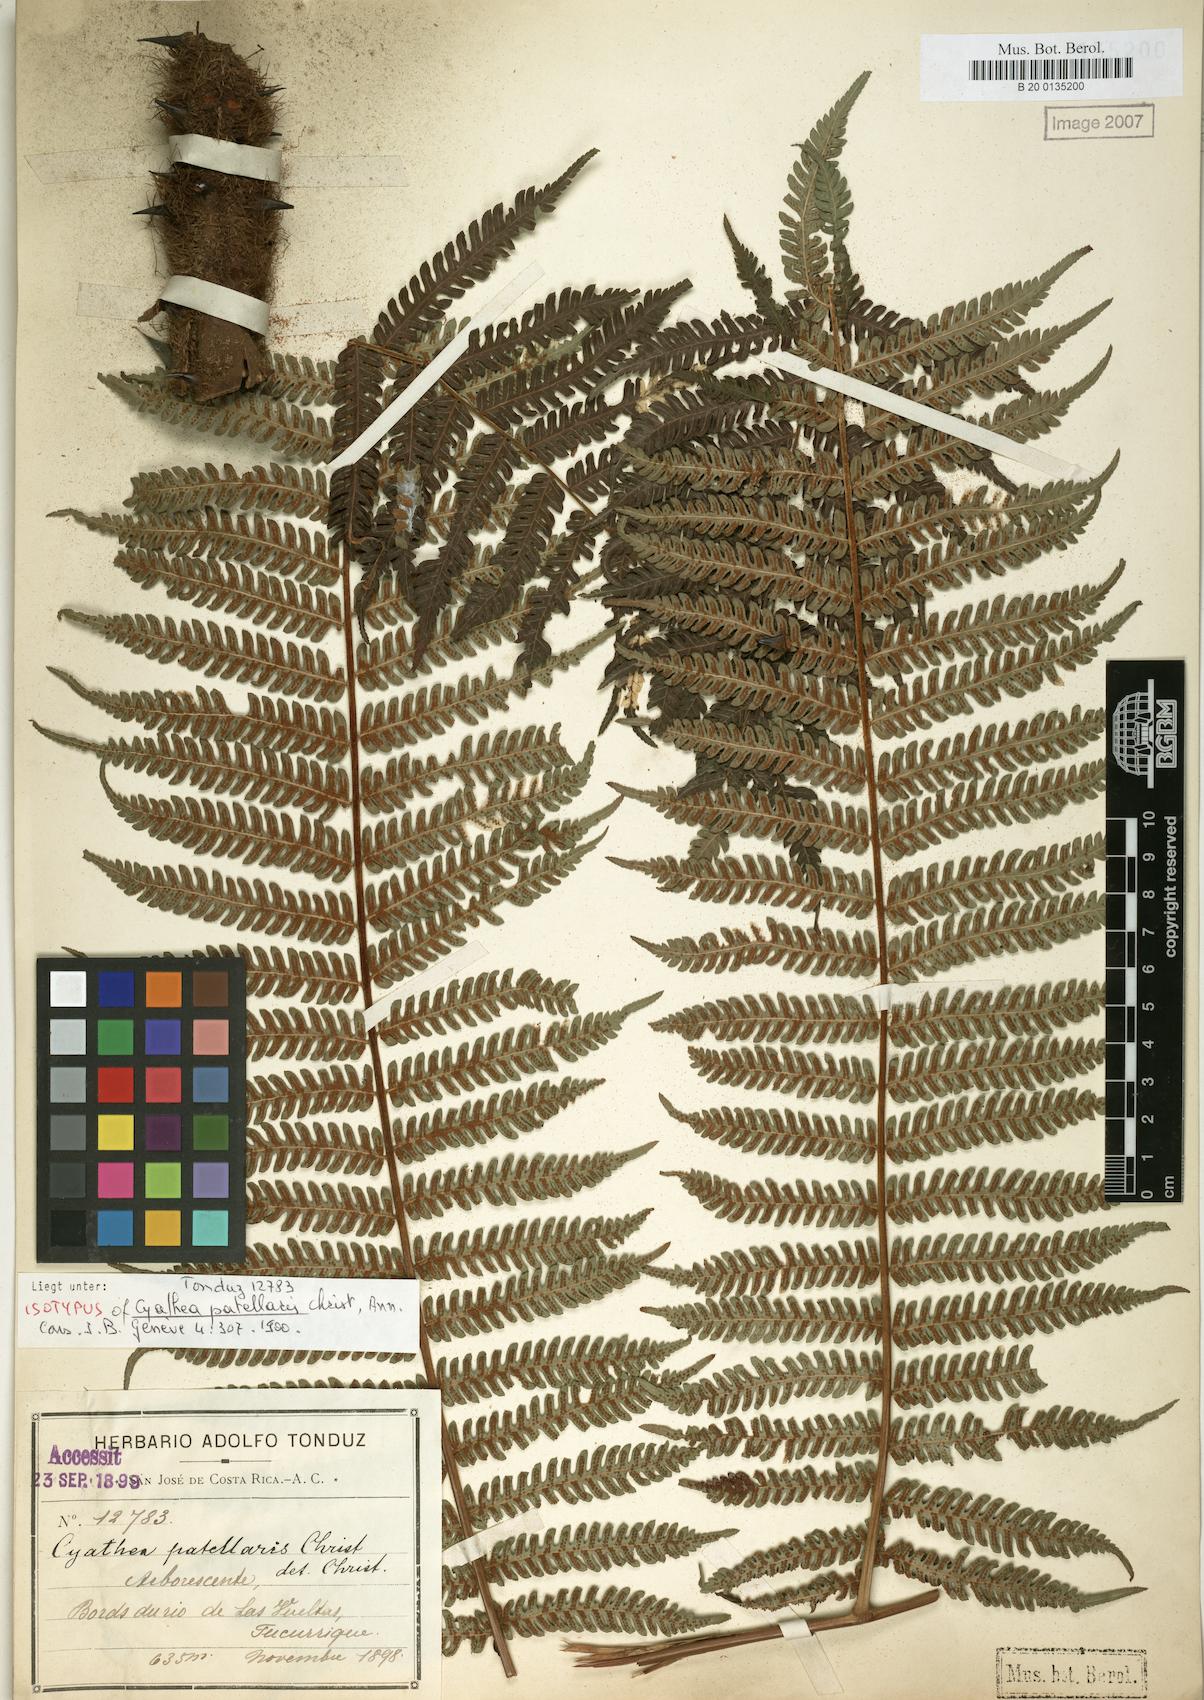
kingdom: Plantae
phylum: Tracheophyta
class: Polypodiopsida
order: Cyatheales
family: Cyatheaceae
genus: Alsophila
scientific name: Alsophila firma
